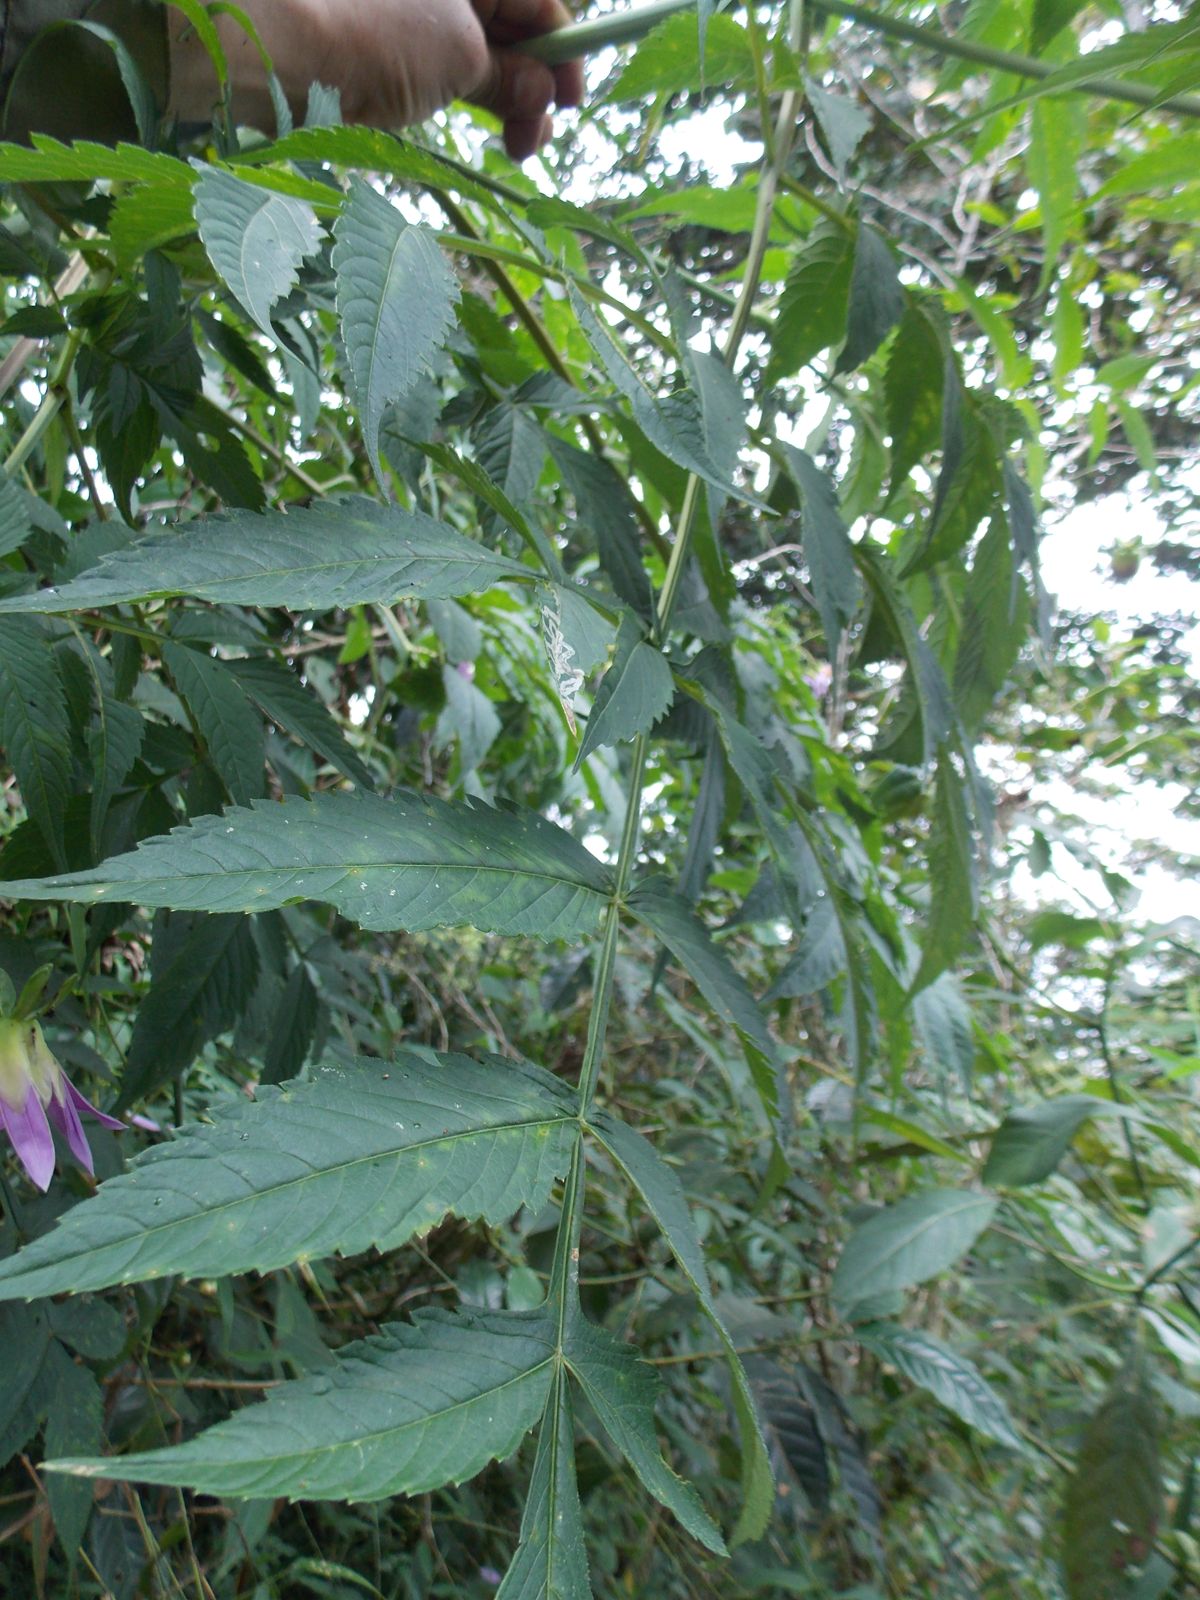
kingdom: Plantae
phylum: Tracheophyta
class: Magnoliopsida
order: Asterales
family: Asteraceae
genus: Dahlia
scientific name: Dahlia imperialis
